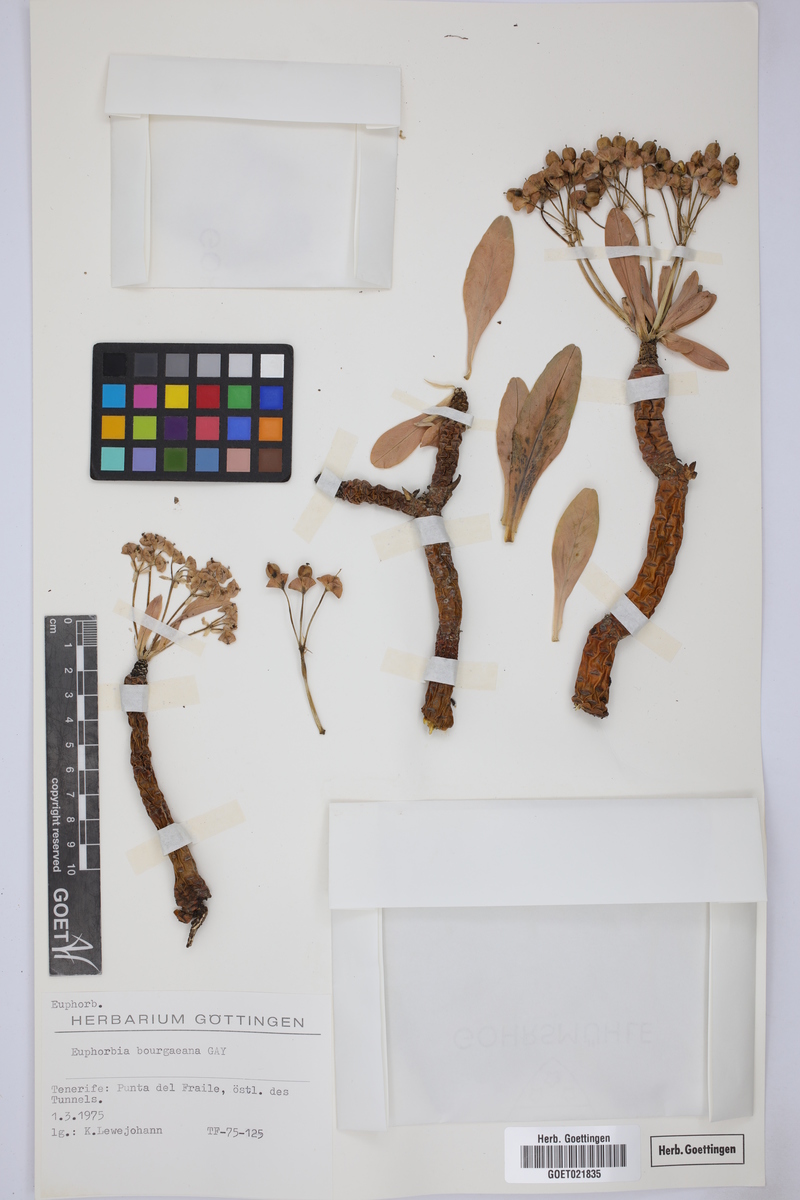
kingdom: Plantae
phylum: Tracheophyta
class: Magnoliopsida
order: Malpighiales
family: Euphorbiaceae
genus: Euphorbia
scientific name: Euphorbia balsamifera
